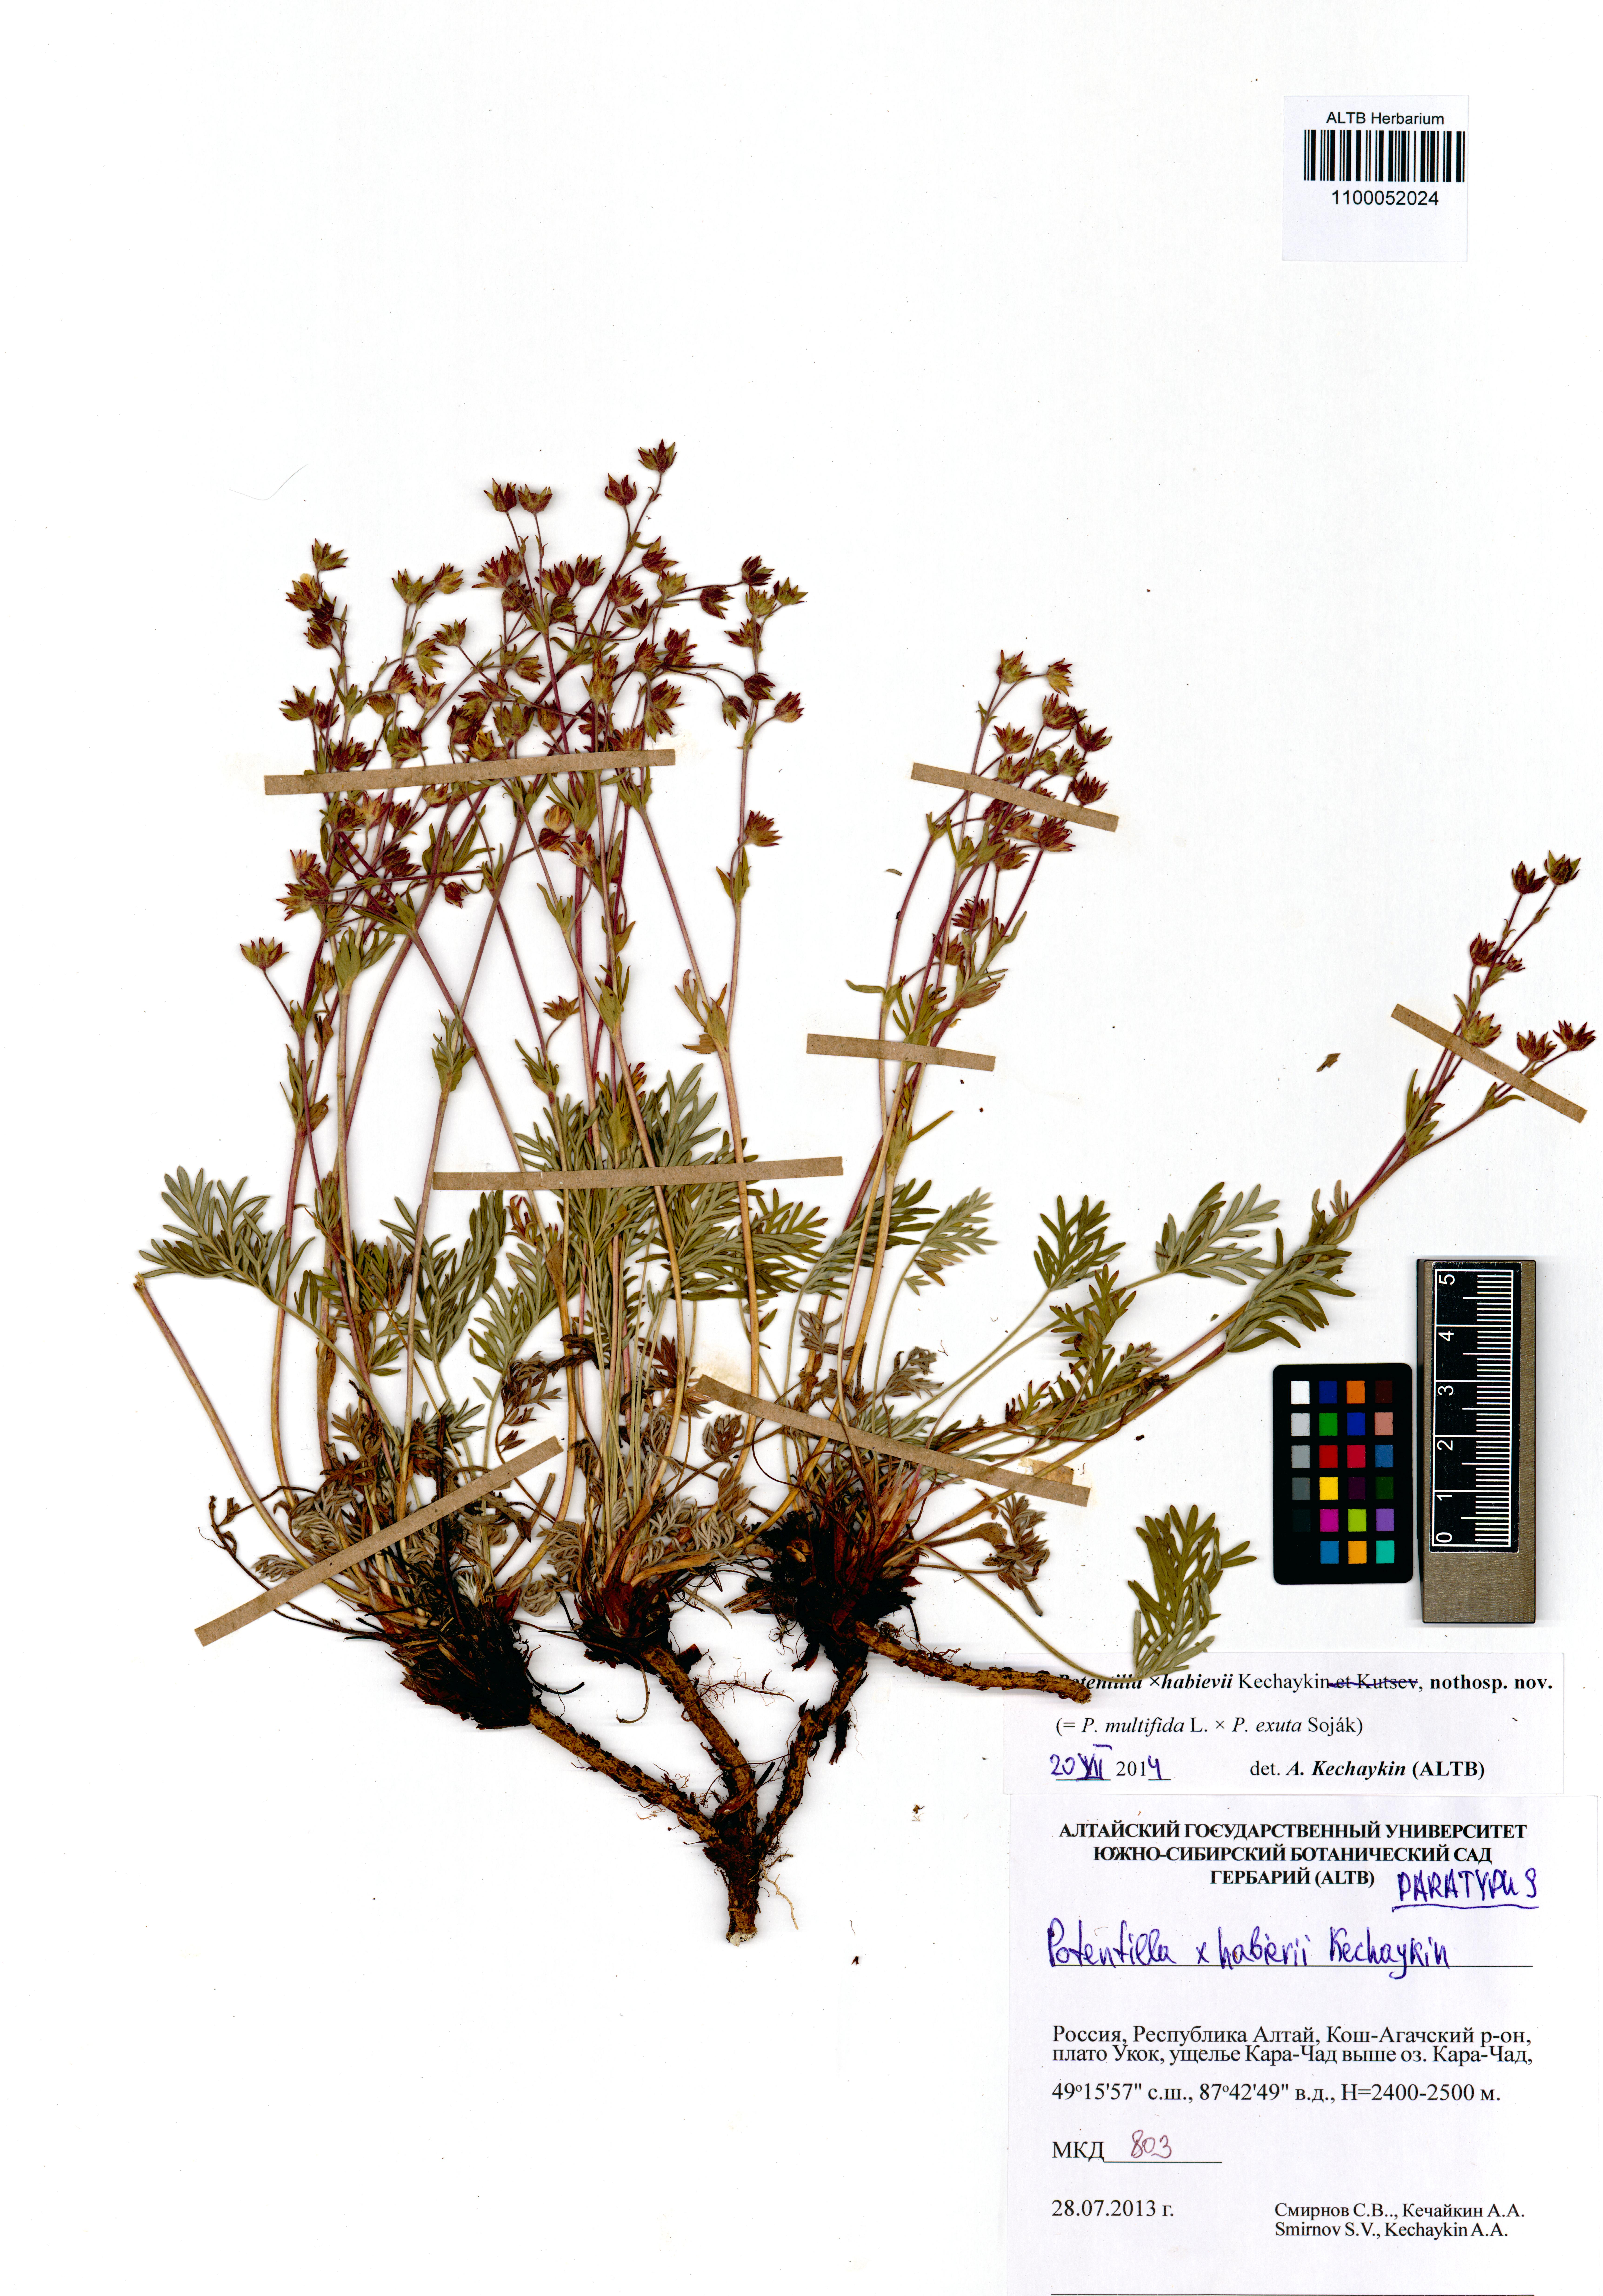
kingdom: Plantae
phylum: Tracheophyta
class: Magnoliopsida
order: Rosales
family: Rosaceae
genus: Potentilla
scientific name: Potentilla habievii
